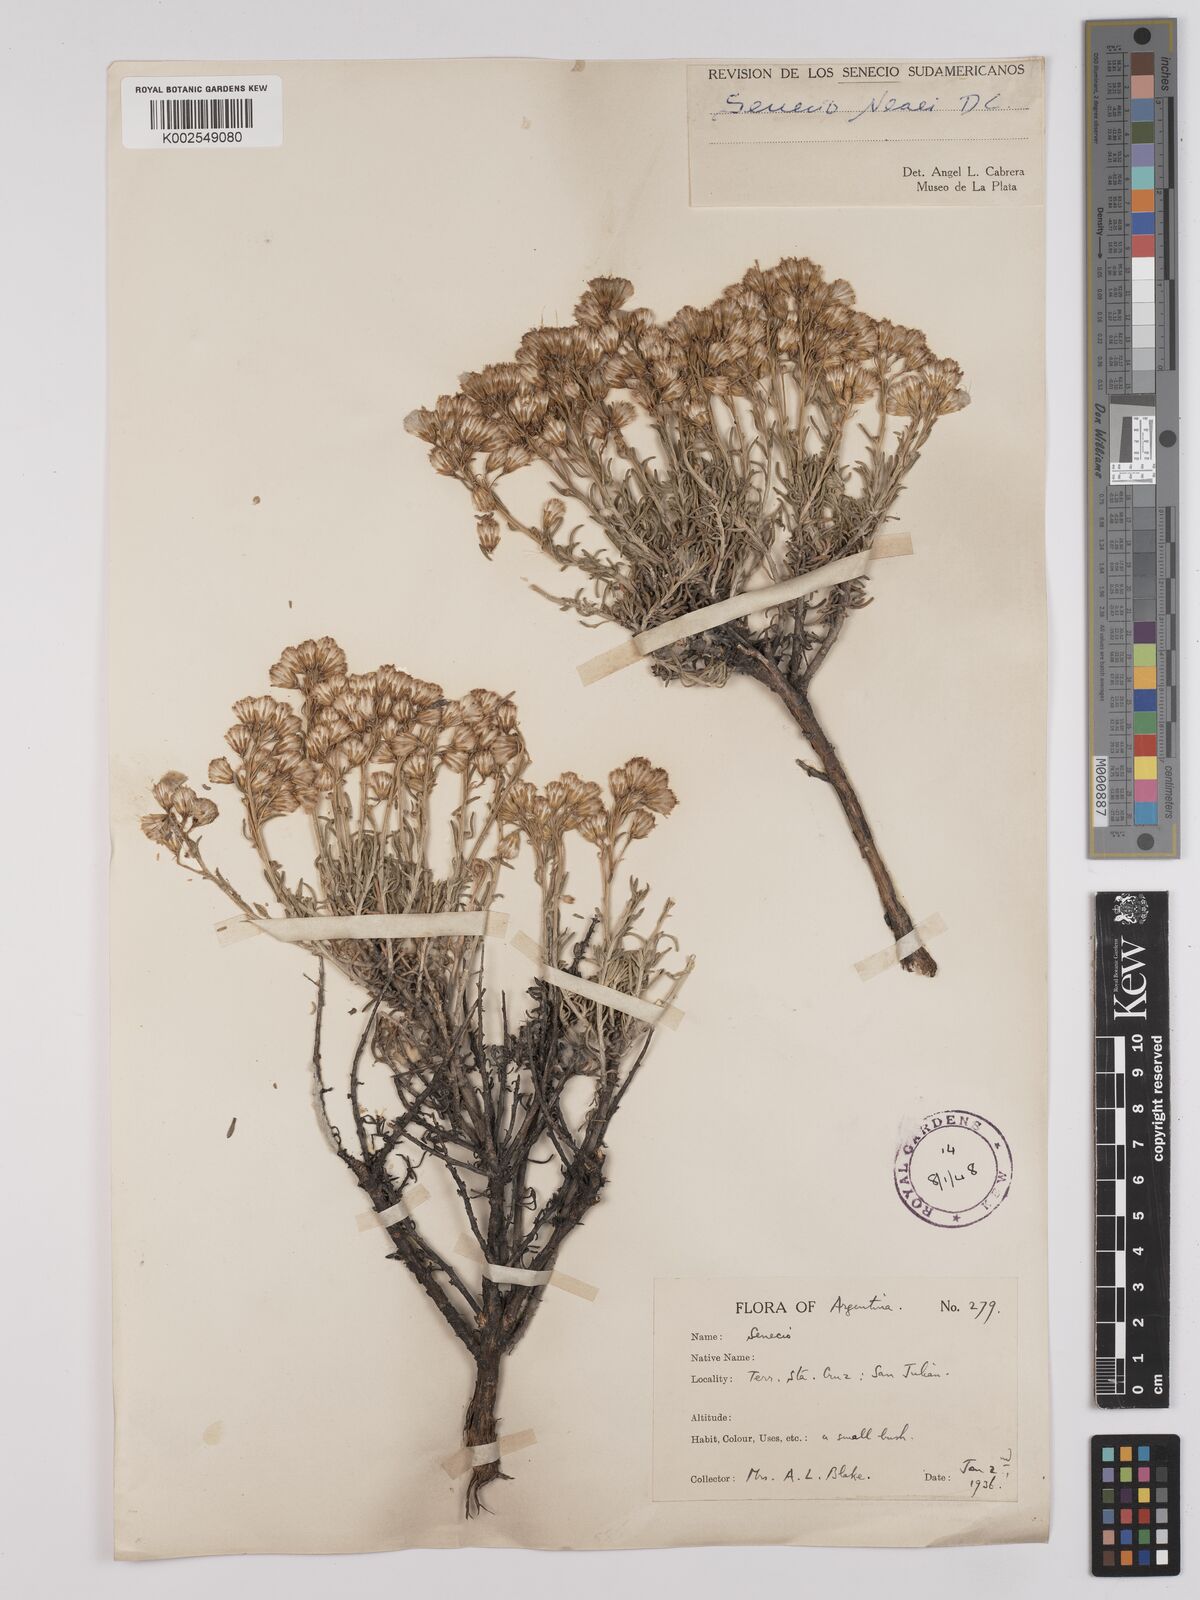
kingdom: Plantae
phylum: Tracheophyta
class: Magnoliopsida
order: Asterales
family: Asteraceae
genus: Senecio
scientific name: Senecio neaei
